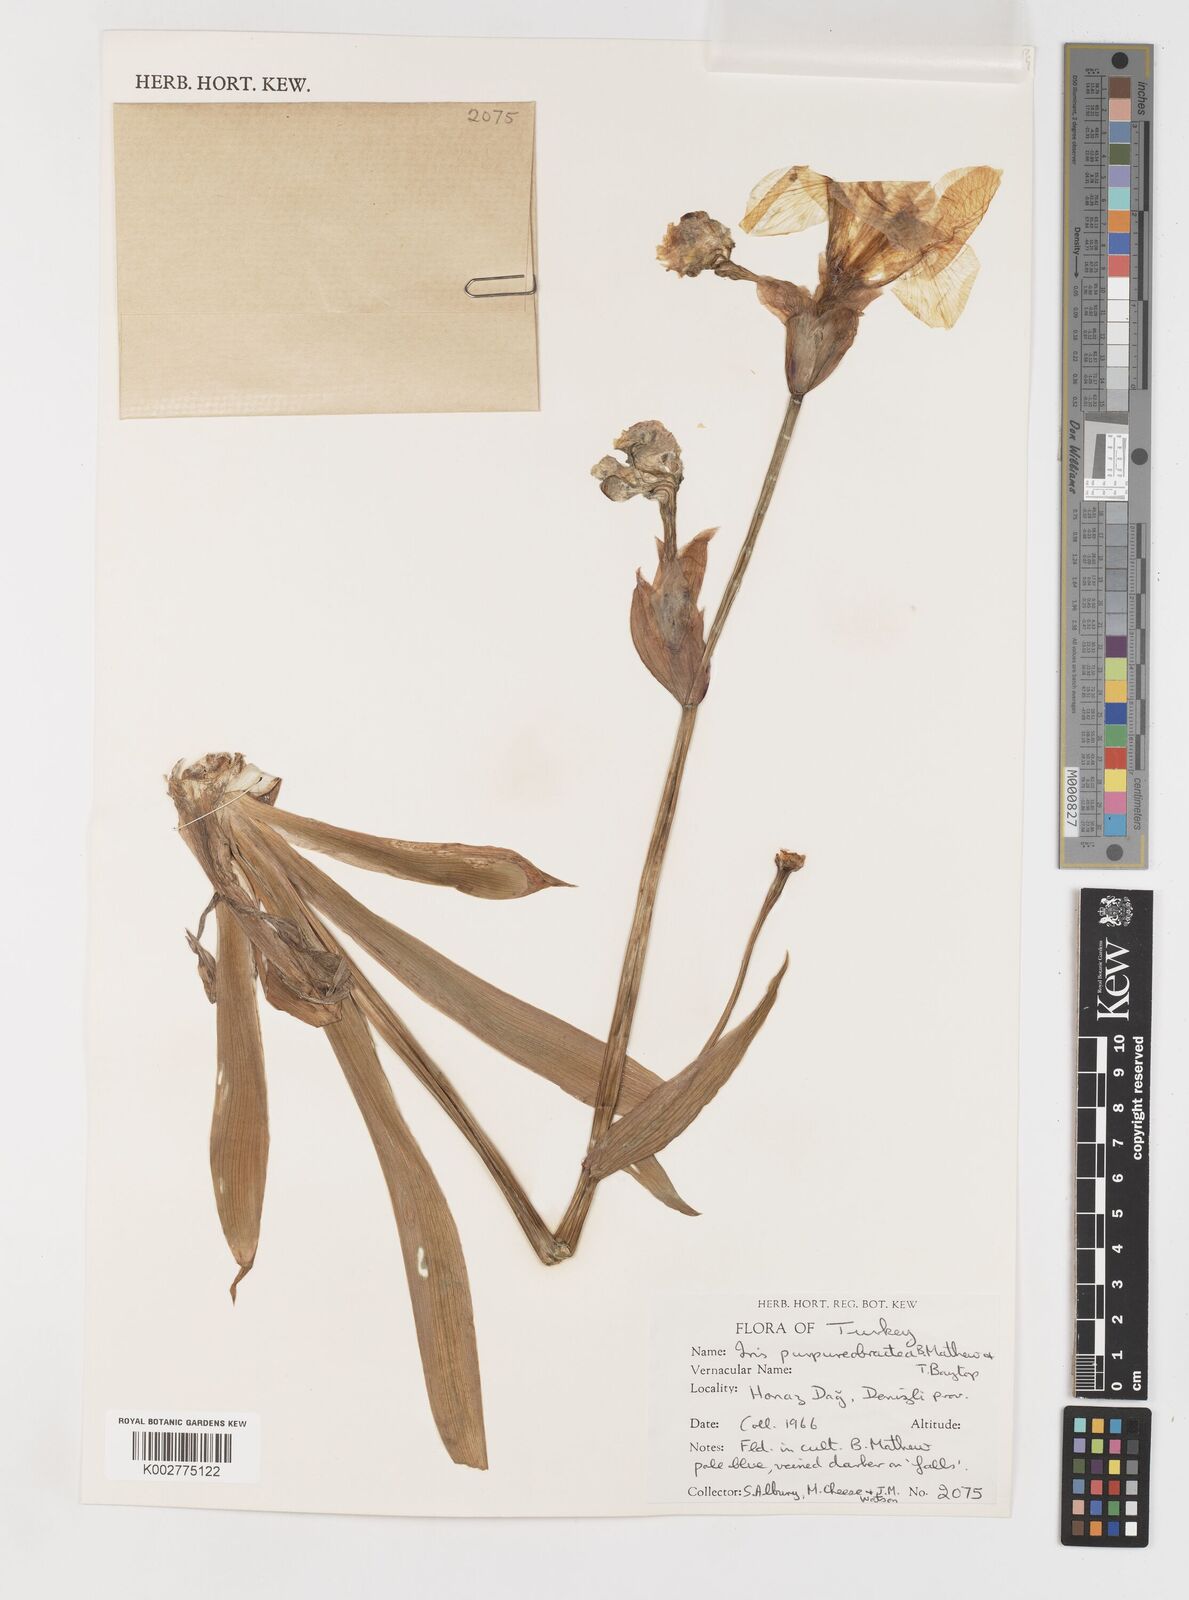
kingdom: Plantae
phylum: Tracheophyta
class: Liliopsida
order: Asparagales
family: Iridaceae
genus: Iris
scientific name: Iris purpureobractea
